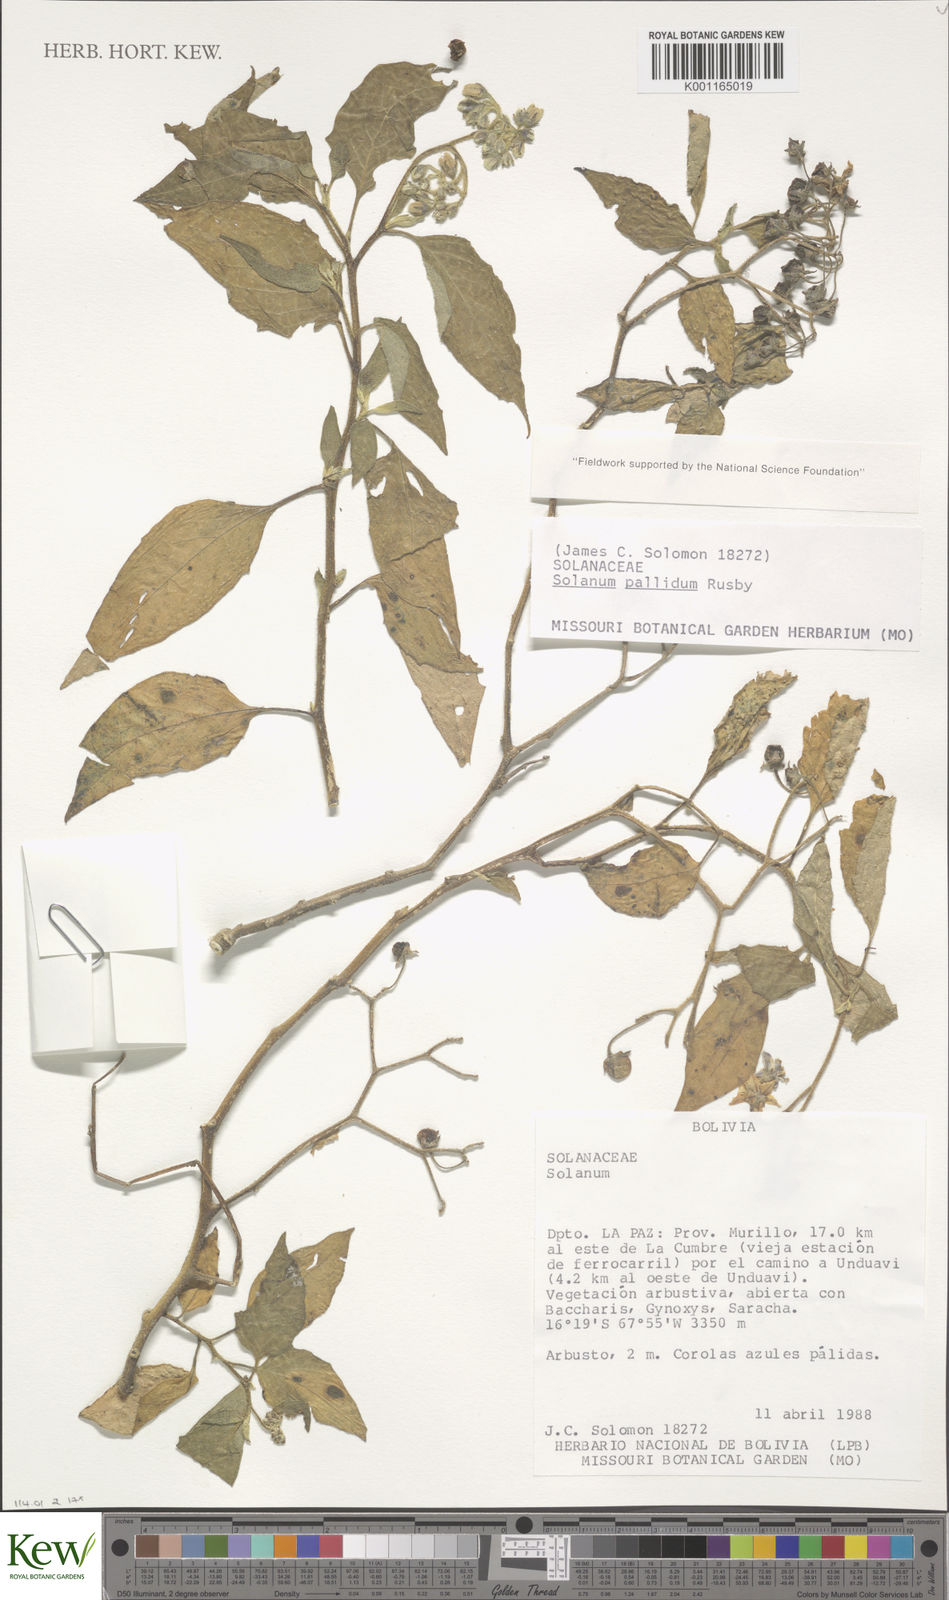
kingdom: Plantae
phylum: Tracheophyta
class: Magnoliopsida
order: Solanales
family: Solanaceae
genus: Solanum
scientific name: Solanum nutans
